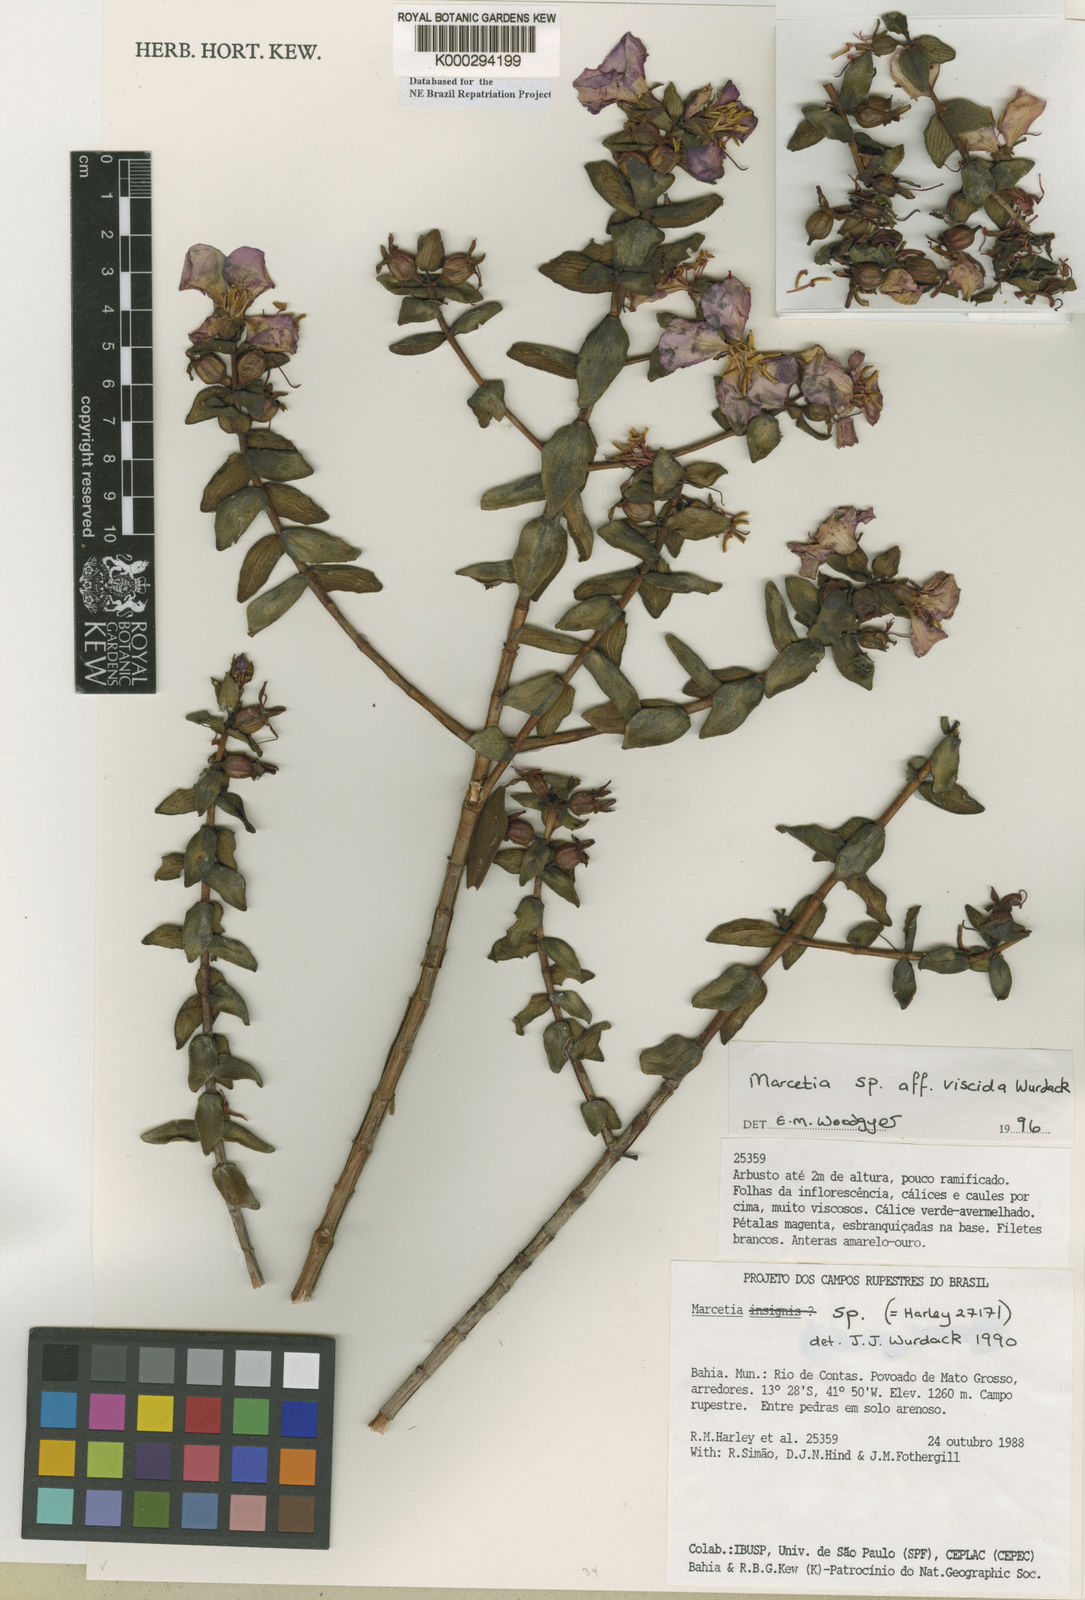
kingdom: Plantae
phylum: Tracheophyta
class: Magnoliopsida
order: Myrtales
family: Melastomataceae
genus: Marcetia
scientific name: Marcetia
